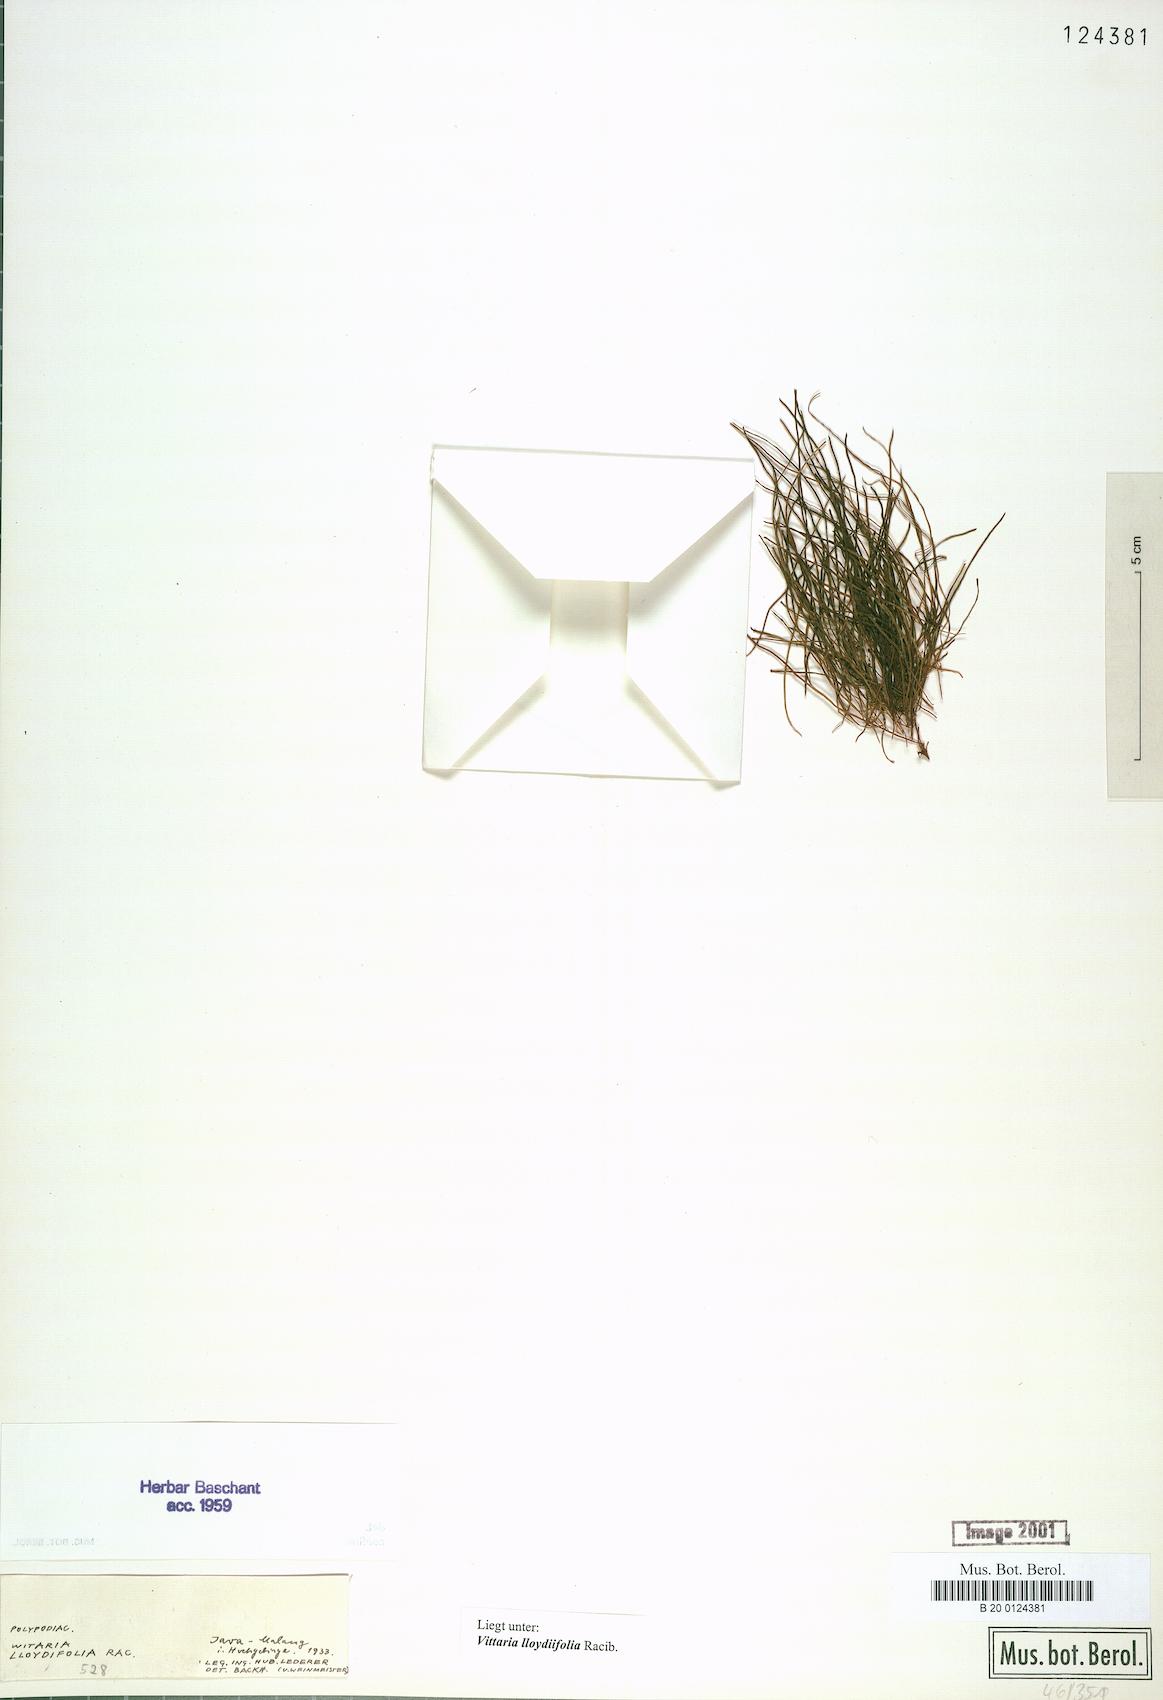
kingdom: Plantae
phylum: Tracheophyta
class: Polypodiopsida
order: Polypodiales
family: Pteridaceae
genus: Haplopteris
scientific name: Haplopteris elongata
